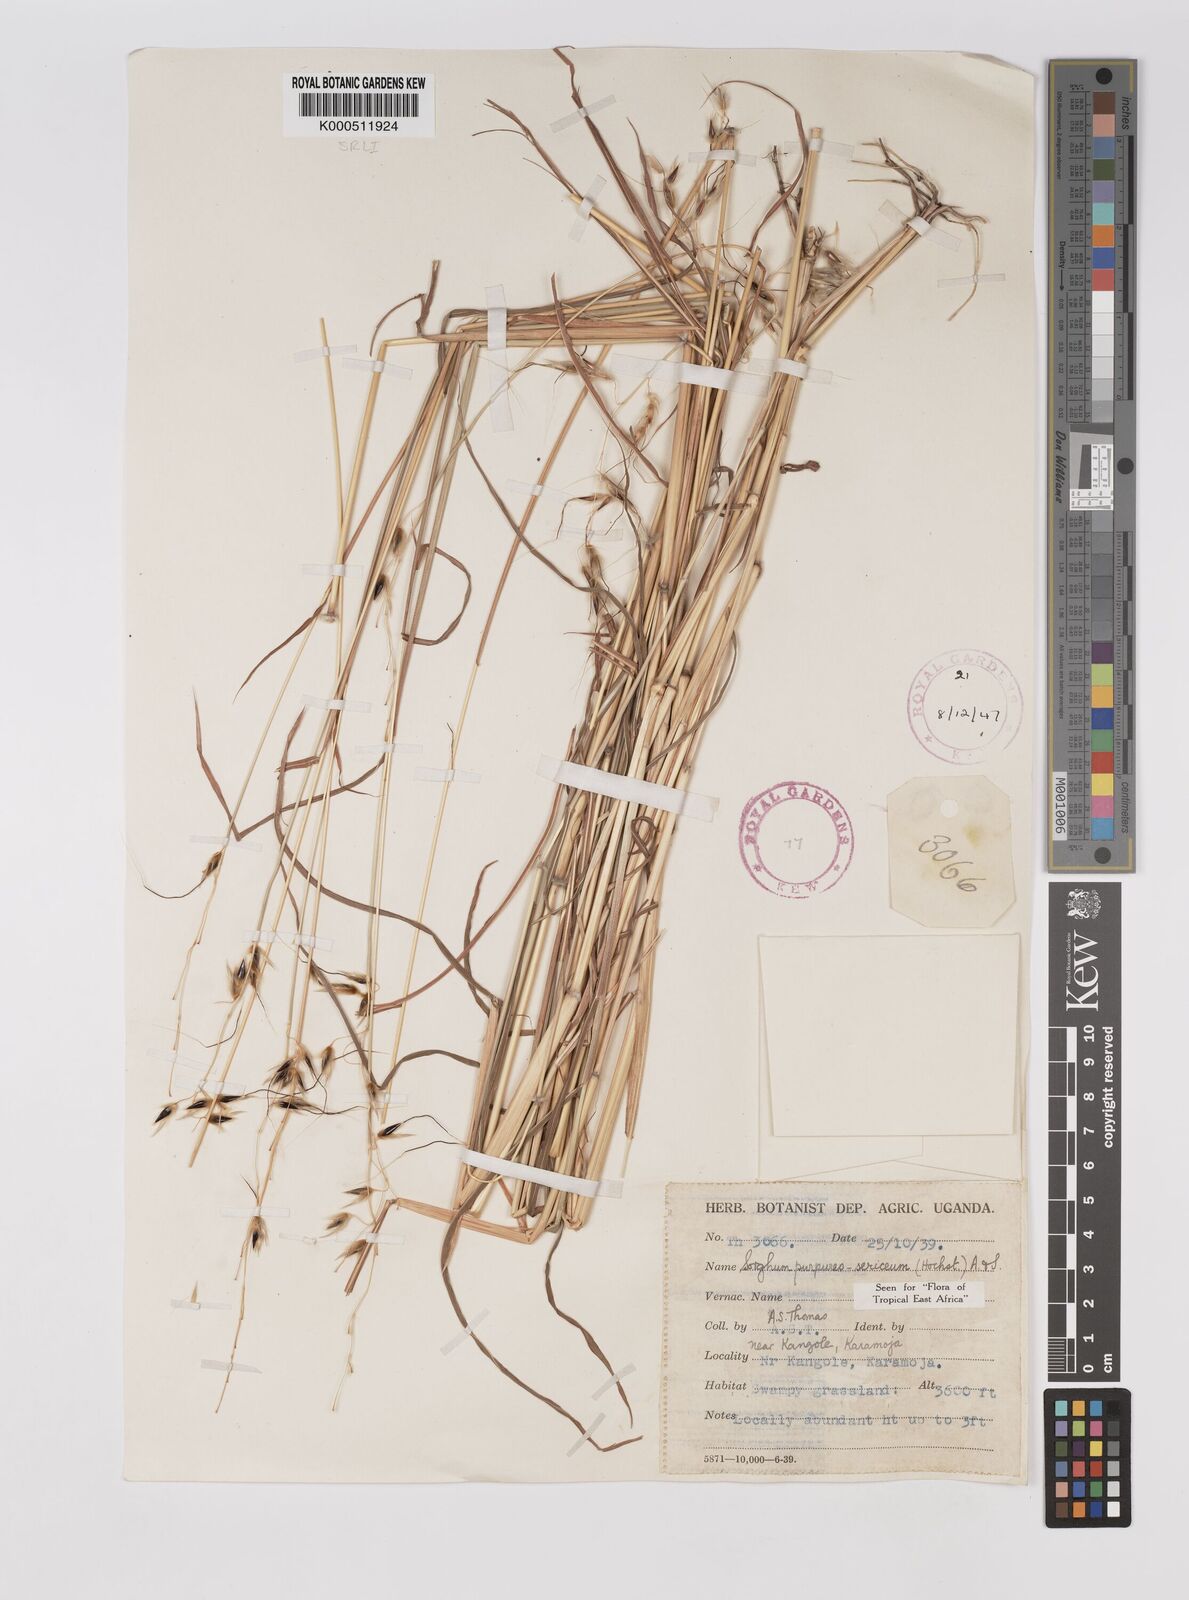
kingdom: Plantae
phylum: Tracheophyta
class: Liliopsida
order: Poales
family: Poaceae
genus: Sarga
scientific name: Sarga purpureosericea
